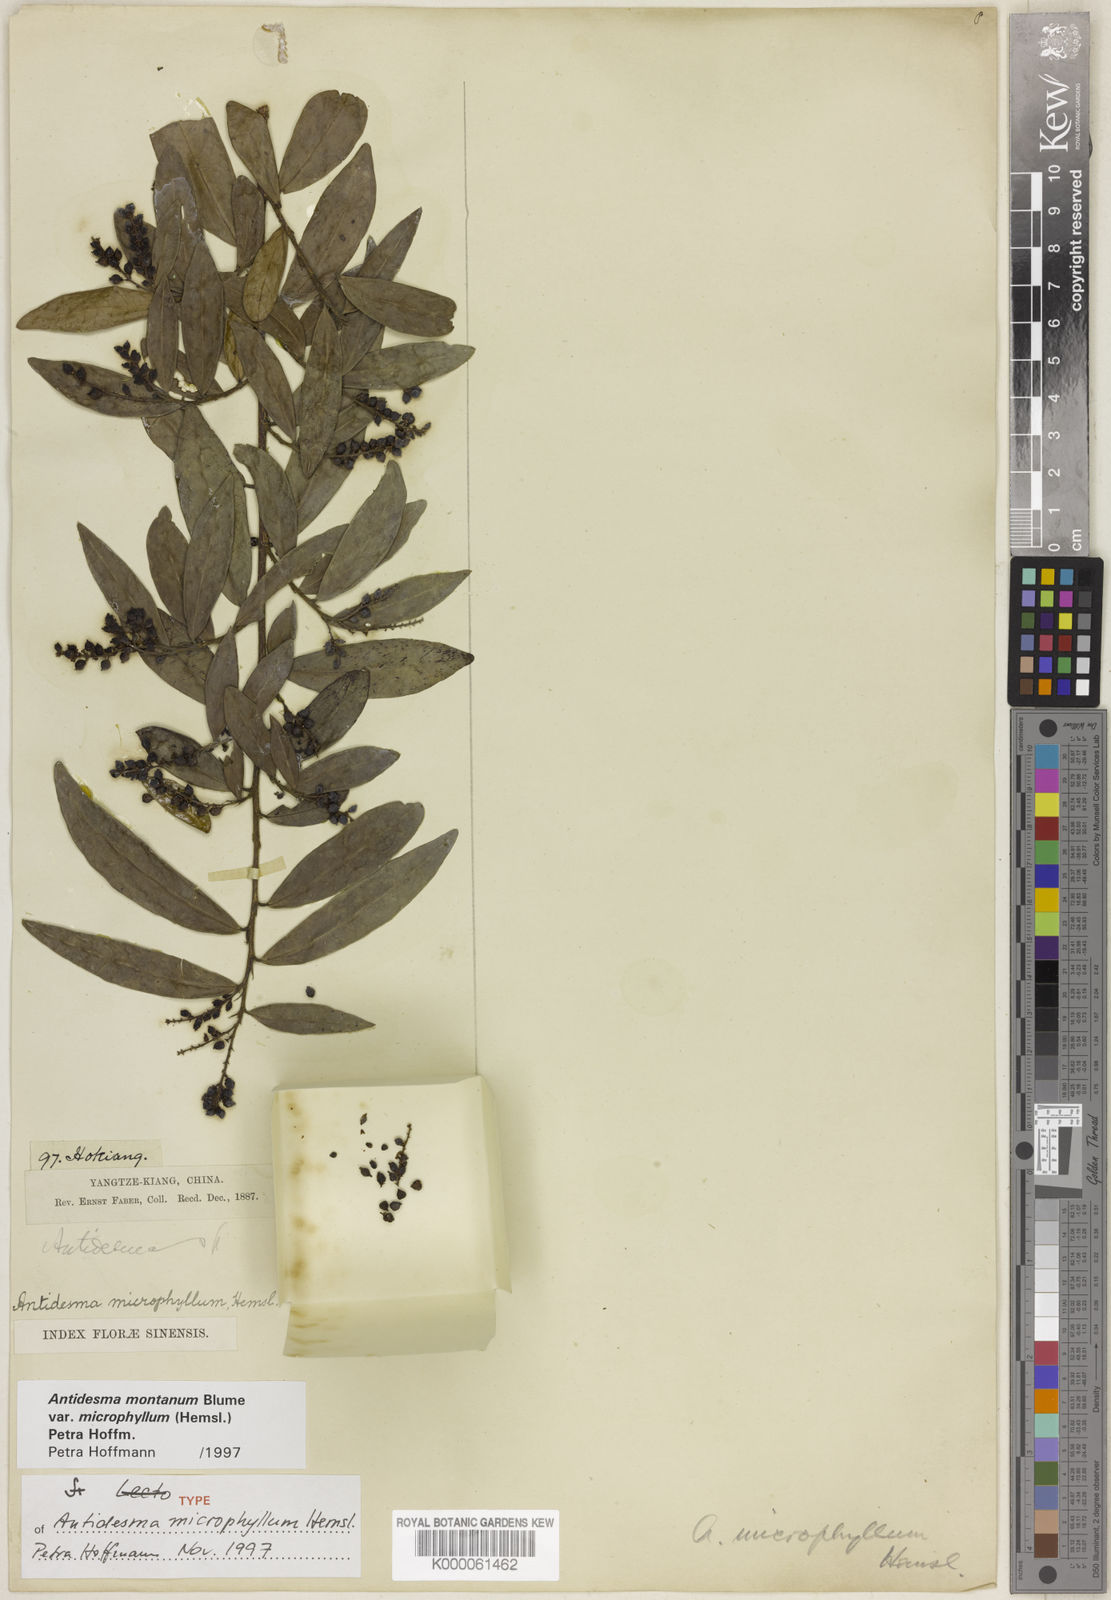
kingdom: Plantae
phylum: Tracheophyta
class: Magnoliopsida
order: Malpighiales
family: Phyllanthaceae
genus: Antidesma
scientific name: Antidesma montanum
